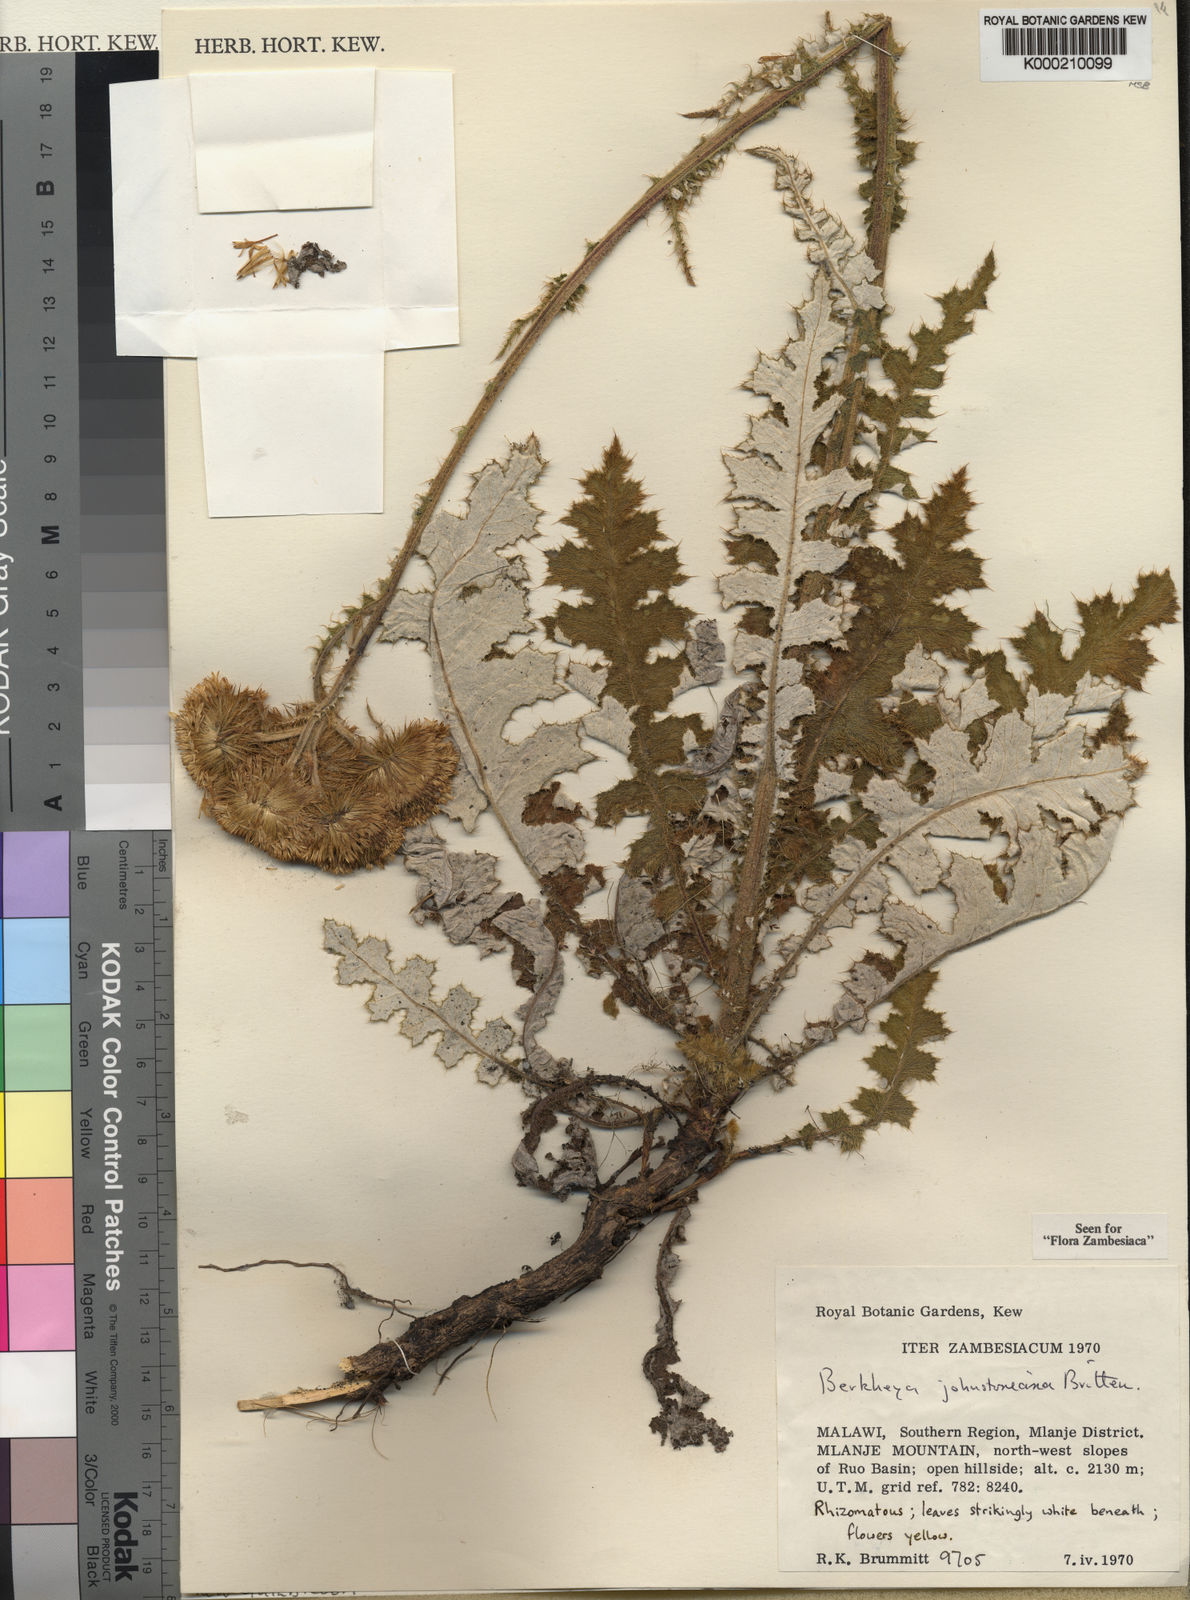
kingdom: Plantae
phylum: Tracheophyta
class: Magnoliopsida
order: Asterales
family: Asteraceae
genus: Berkheya
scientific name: Berkheya johnstoniana
